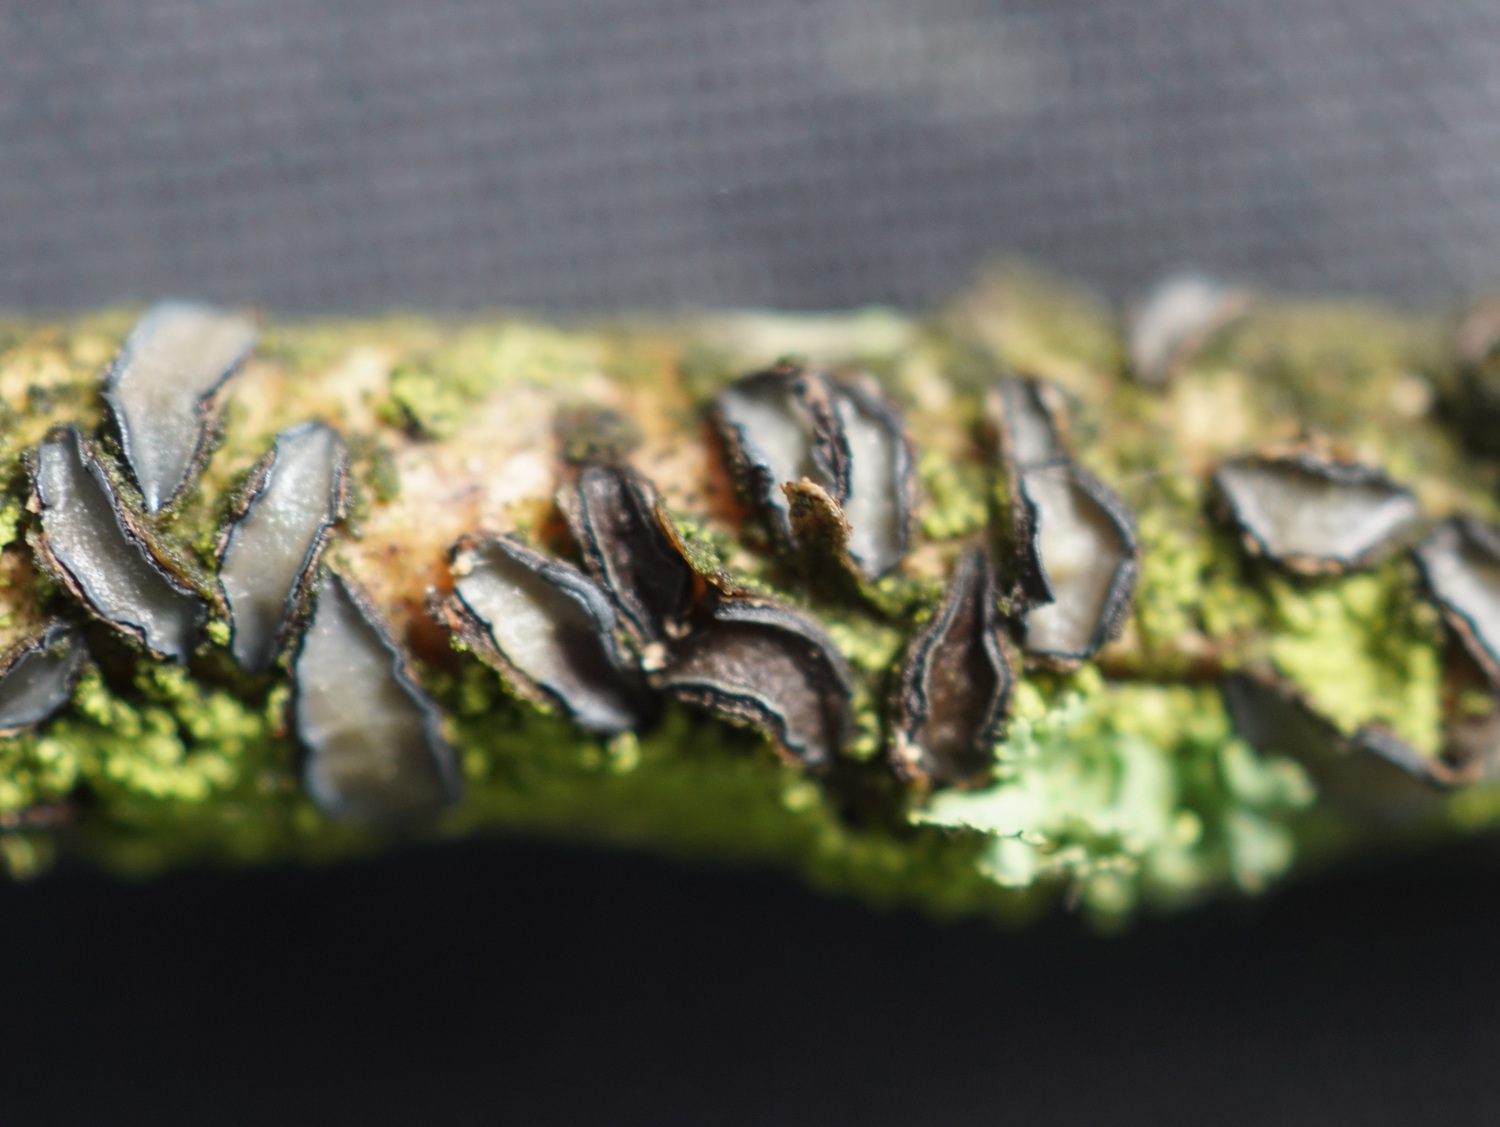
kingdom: Fungi
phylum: Ascomycota
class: Leotiomycetes
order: Rhytismatales
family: Rhytismataceae
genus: Colpoma
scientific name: Colpoma quercinum
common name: ege-sprækkeskive
